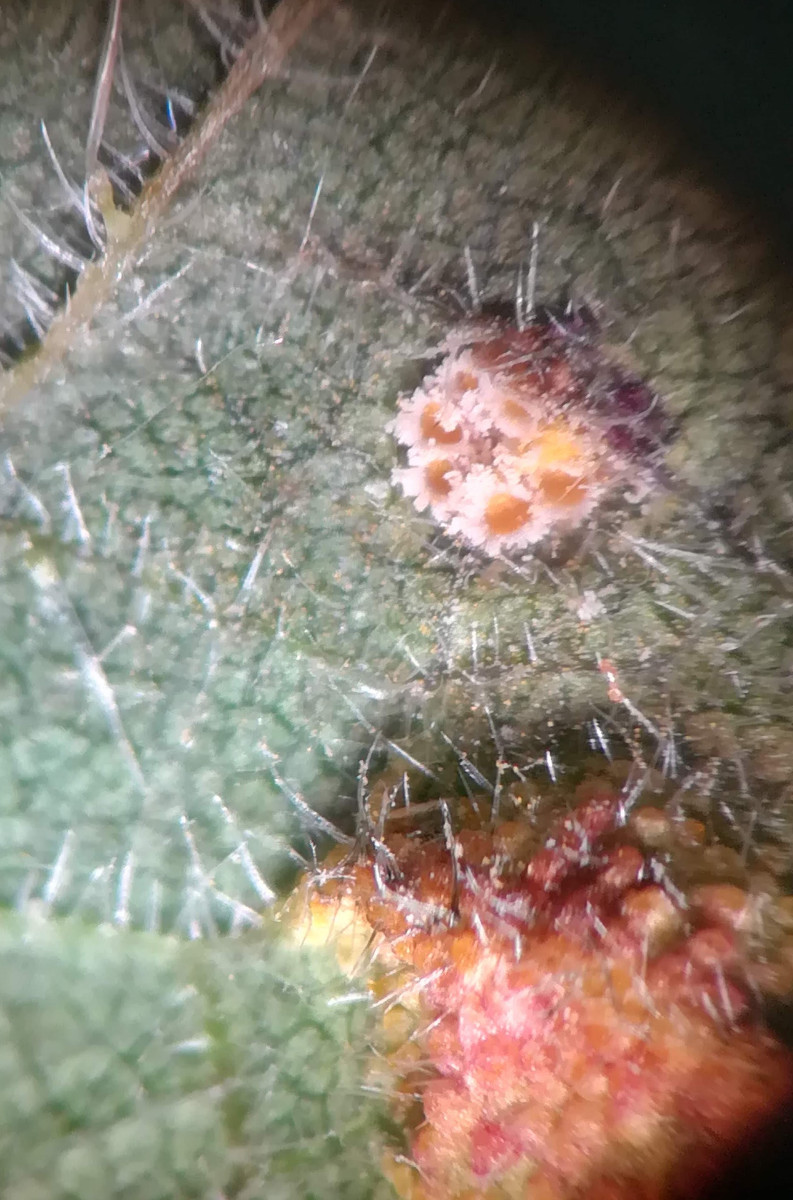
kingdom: Fungi
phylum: Basidiomycota
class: Pucciniomycetes
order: Pucciniales
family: Pucciniaceae
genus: Puccinia
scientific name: Puccinia
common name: tvecellerust
